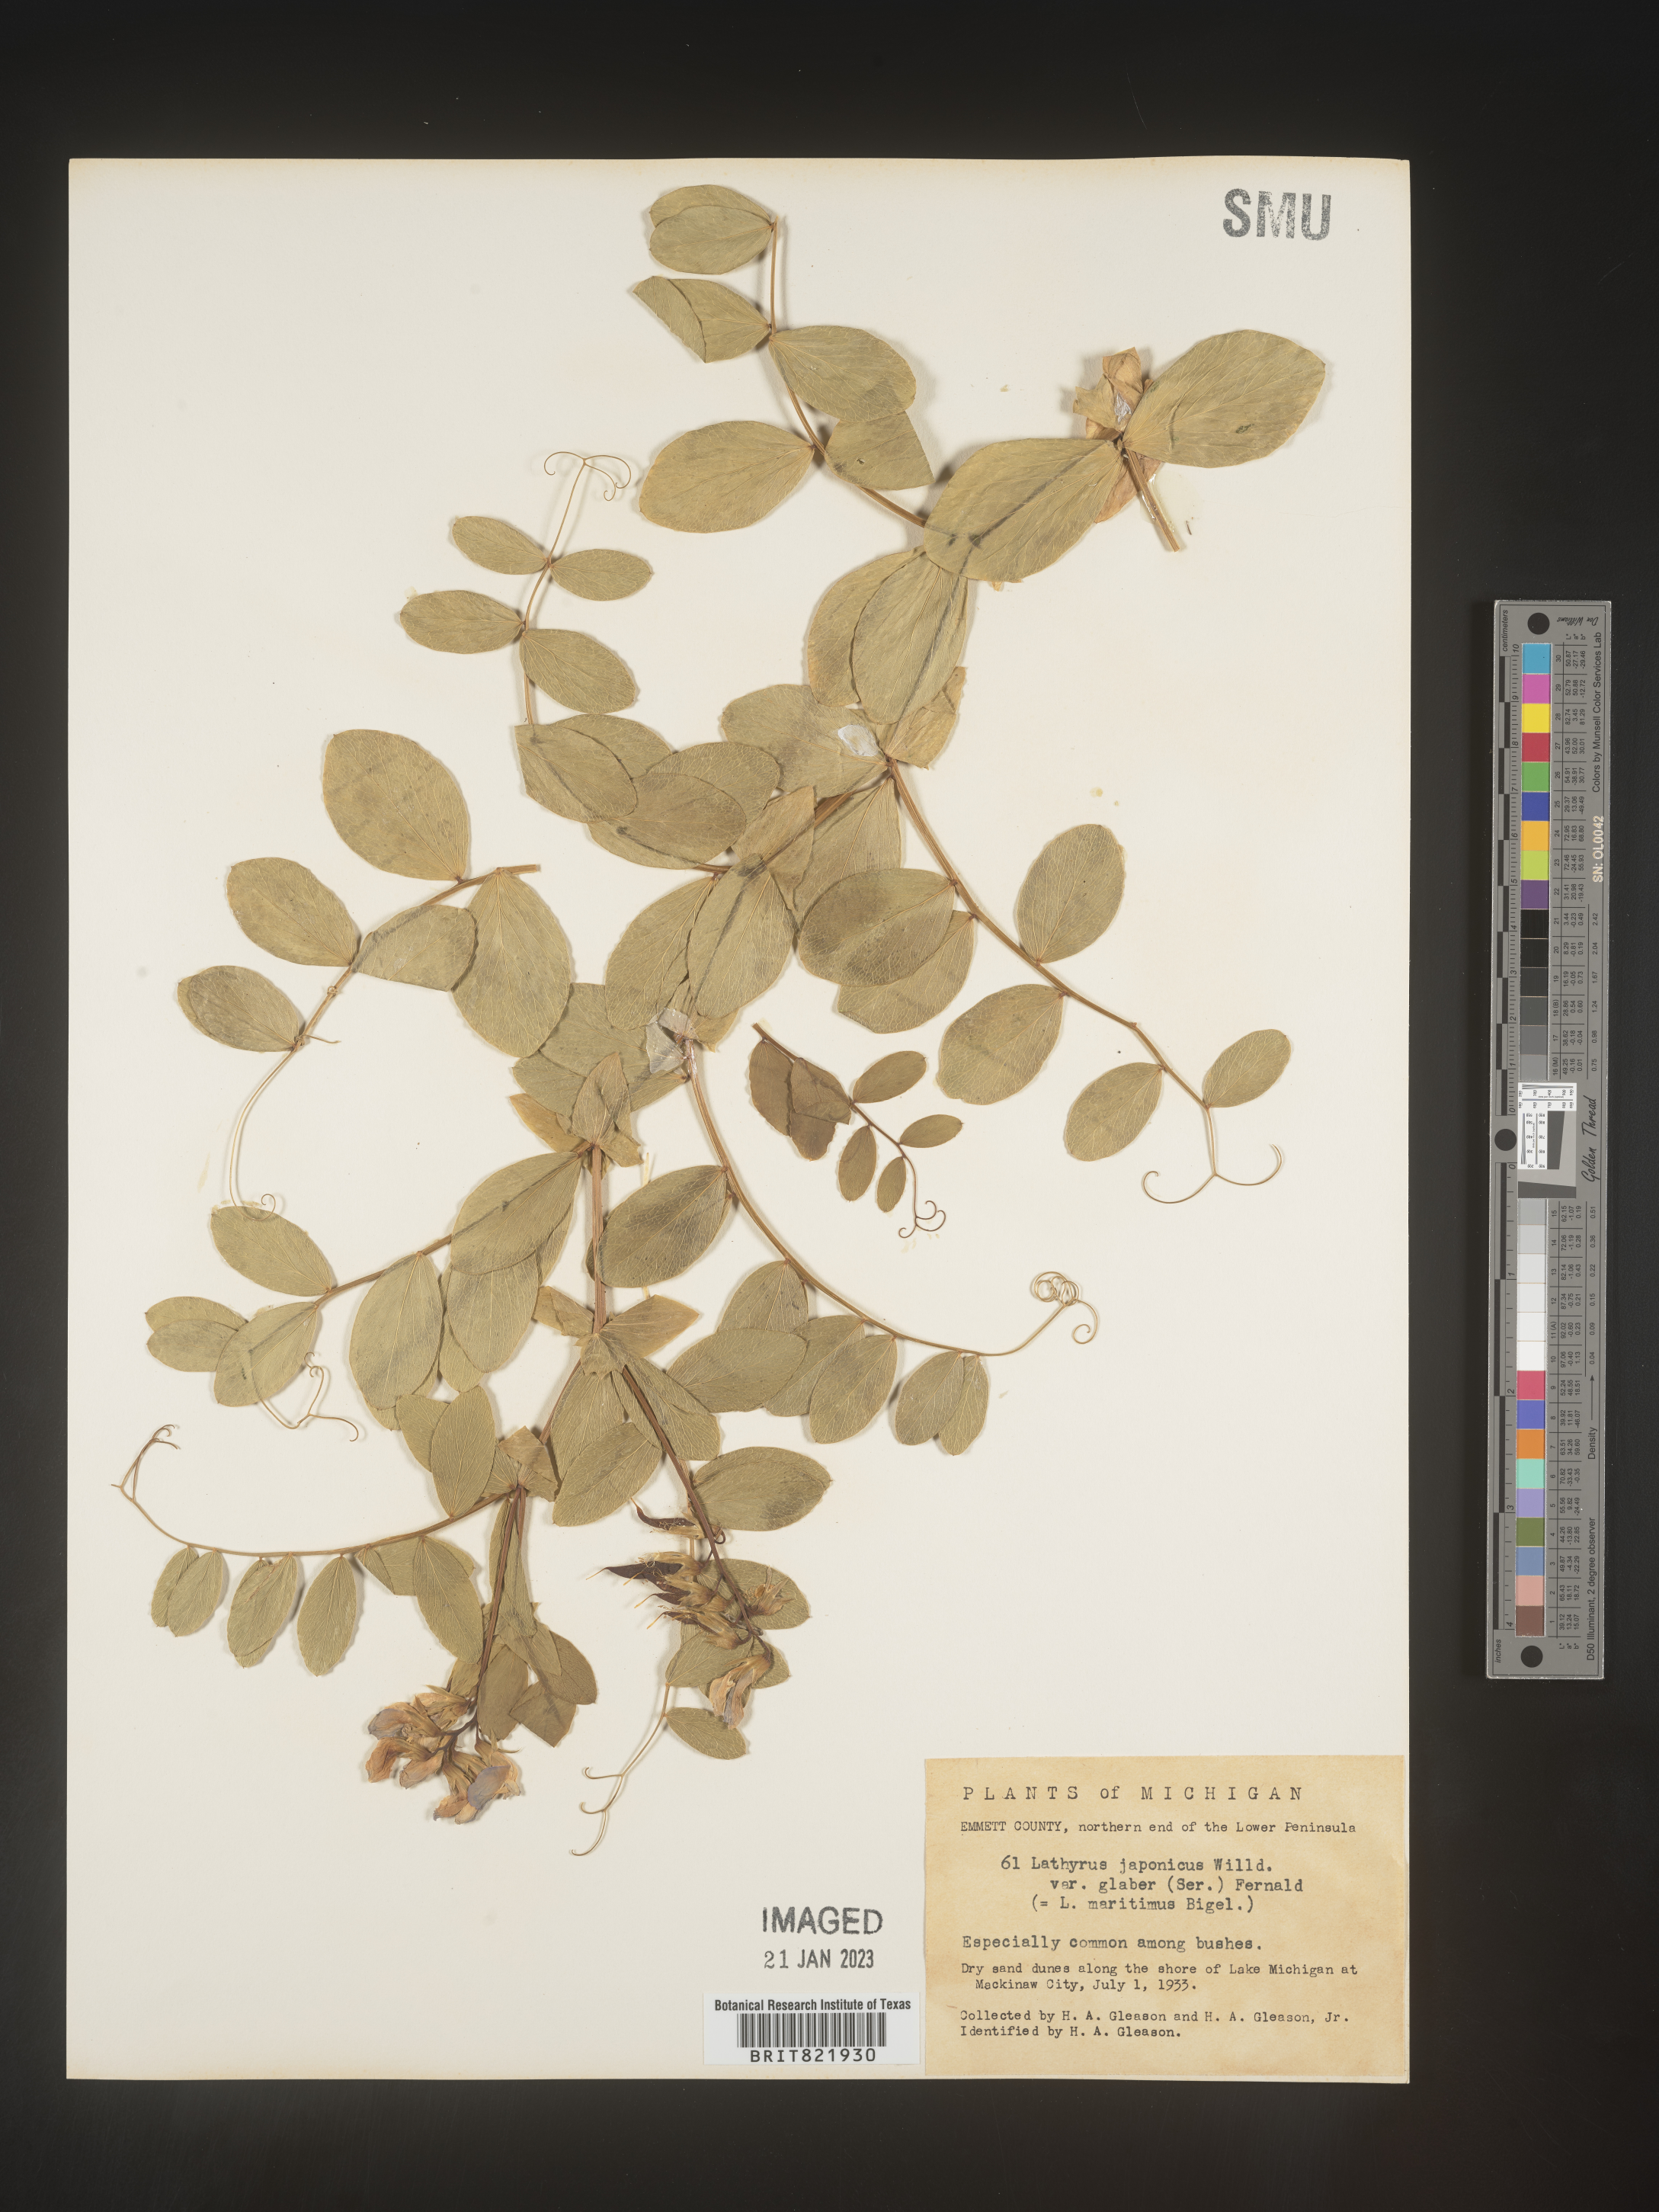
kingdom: Plantae
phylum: Tracheophyta
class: Magnoliopsida
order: Fabales
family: Fabaceae
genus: Lathyrus
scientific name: Lathyrus
